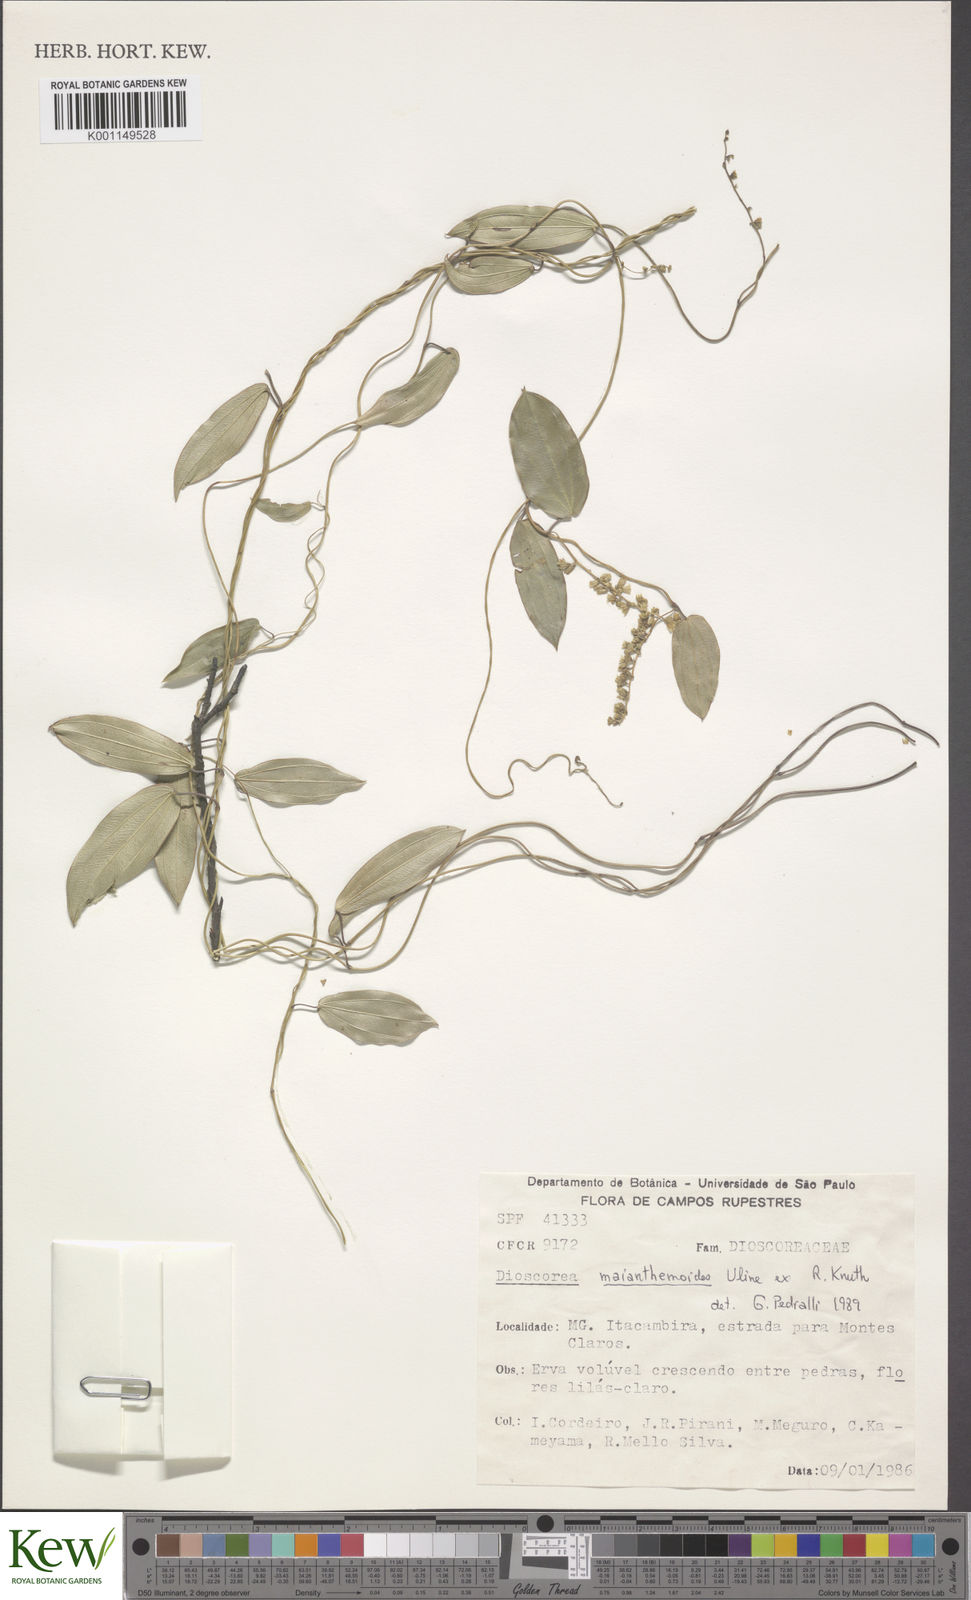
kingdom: Plantae
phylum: Tracheophyta
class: Liliopsida
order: Dioscoreales
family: Dioscoreaceae
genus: Dioscorea
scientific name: Dioscorea maianthemoides
